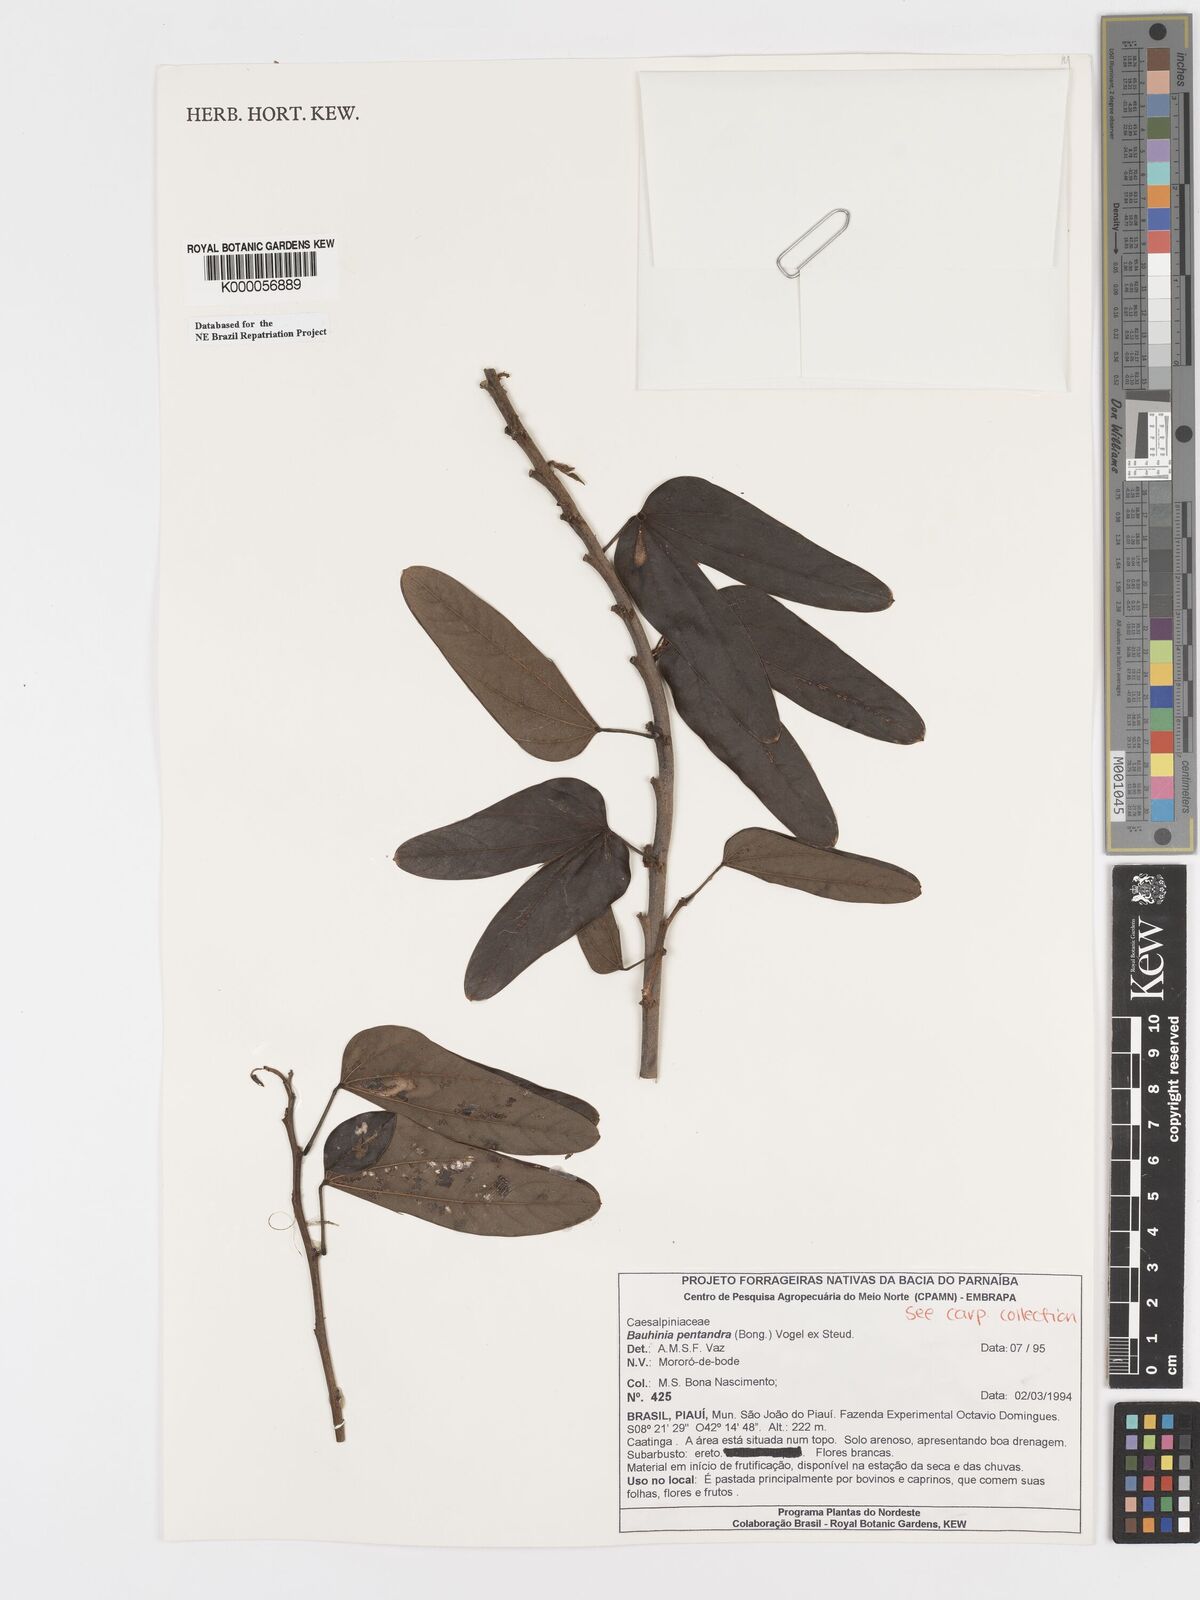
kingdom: Plantae
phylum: Tracheophyta
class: Magnoliopsida
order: Fabales
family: Fabaceae
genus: Bauhinia
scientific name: Bauhinia
